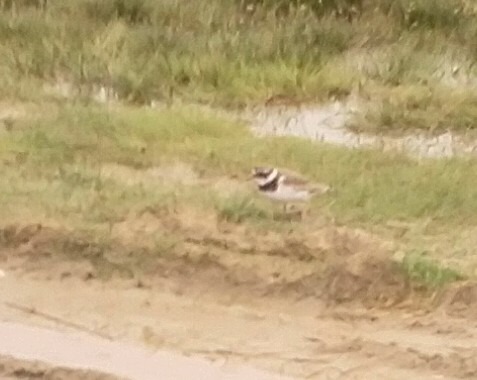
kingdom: Animalia
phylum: Chordata
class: Aves
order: Charadriiformes
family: Charadriidae
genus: Charadrius
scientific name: Charadrius hiaticula
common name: Stor præstekrave
